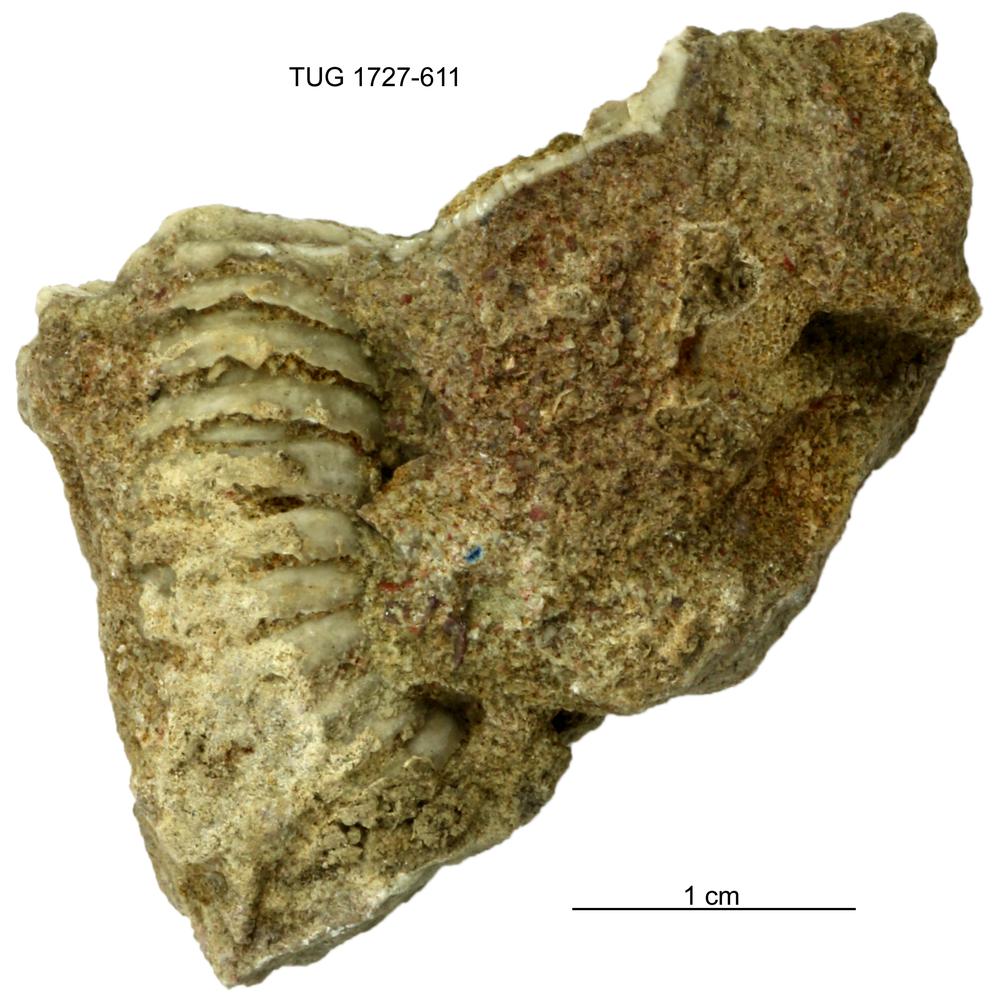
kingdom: Animalia
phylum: Echinodermata
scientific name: Echinodermata
